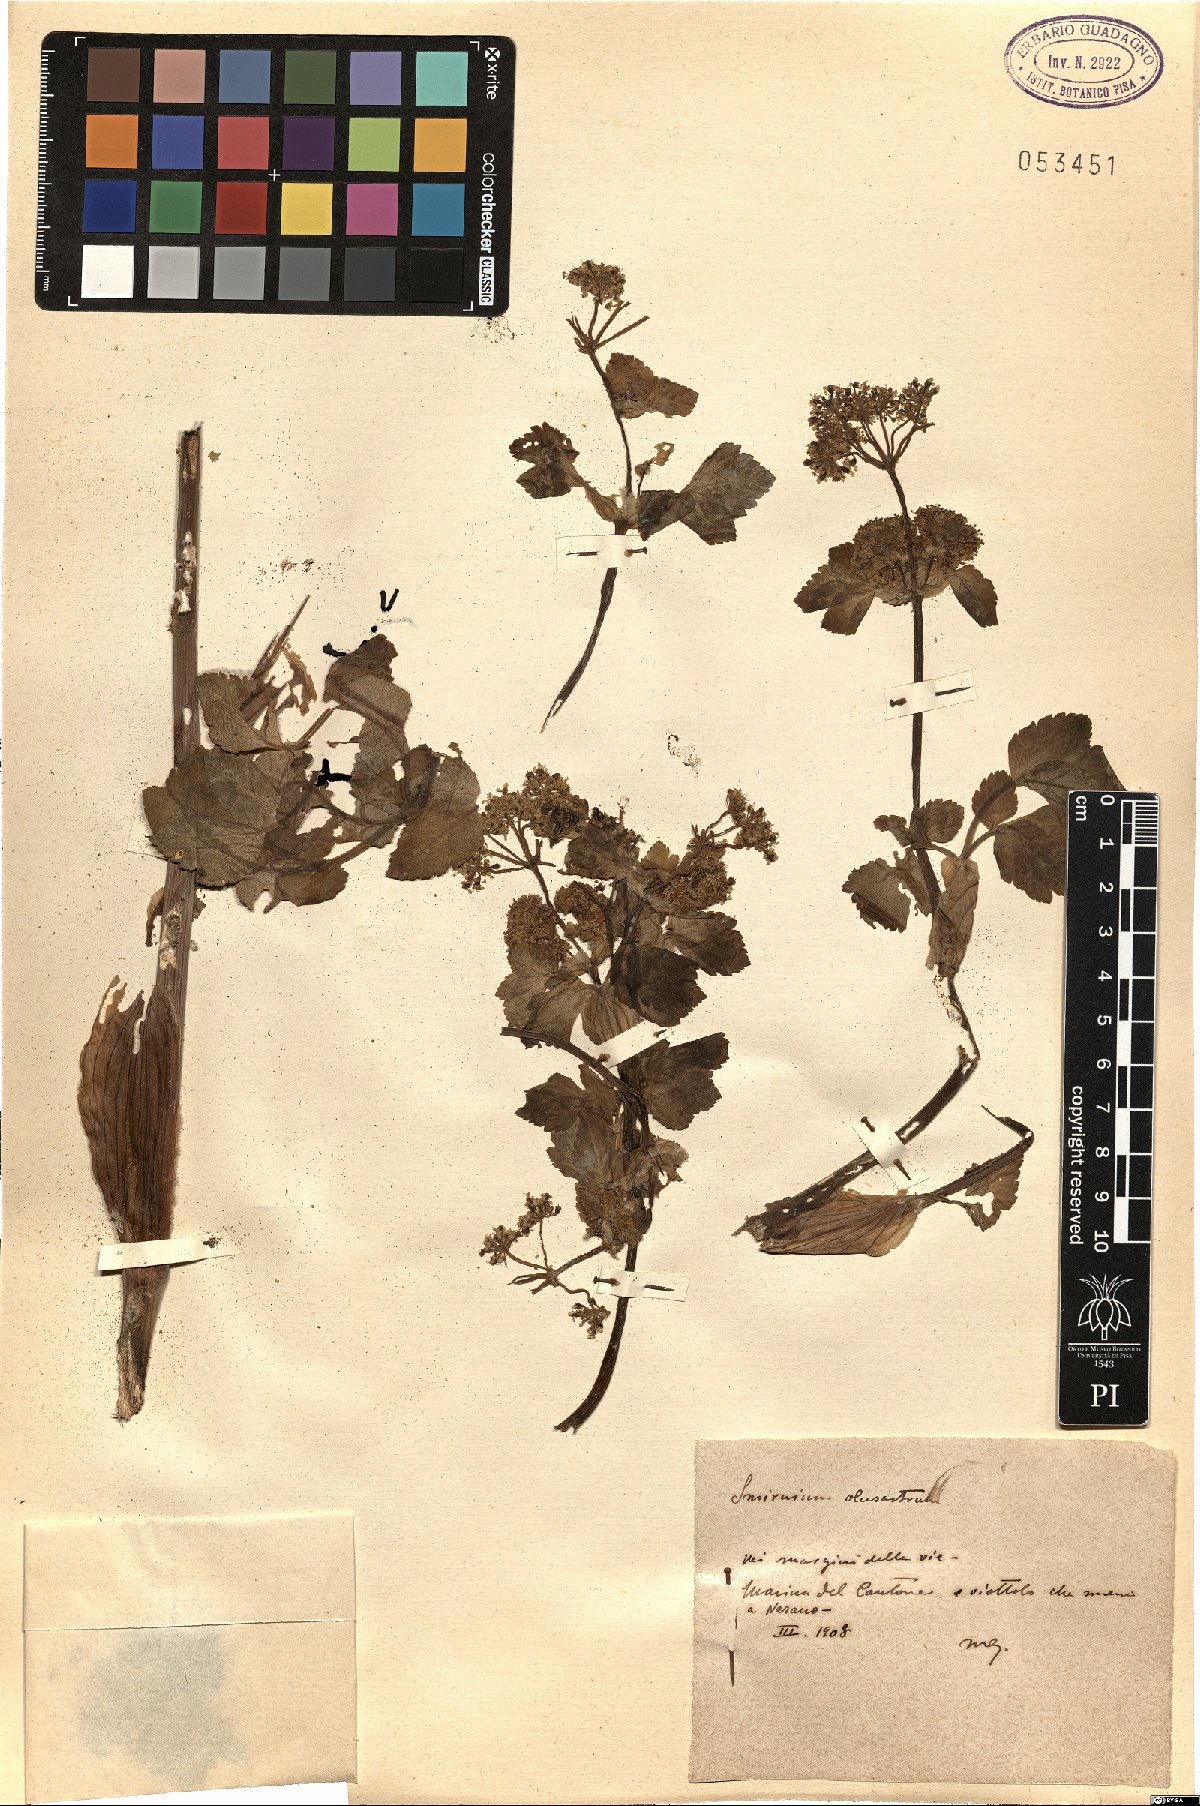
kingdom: Plantae
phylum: Tracheophyta
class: Magnoliopsida
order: Apiales
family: Apiaceae
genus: Smyrnium
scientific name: Smyrnium olusatrum
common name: Alexanders
